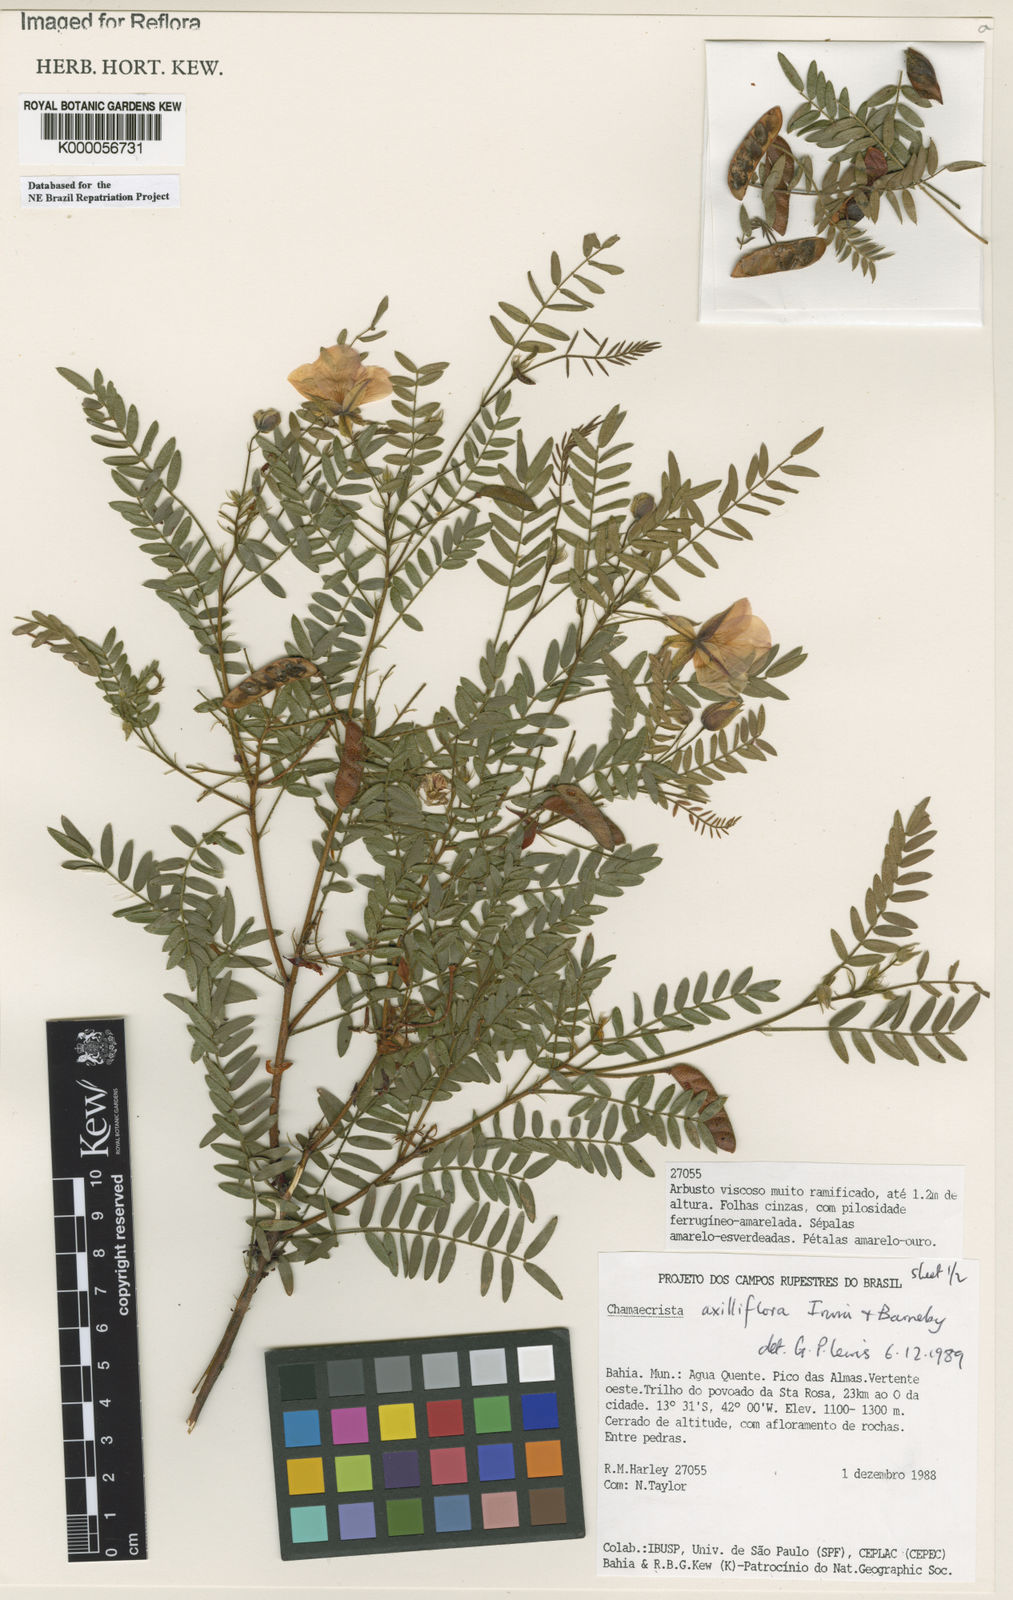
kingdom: Plantae
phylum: Tracheophyta
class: Magnoliopsida
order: Fabales
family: Fabaceae
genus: Chamaecrista
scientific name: Chamaecrista axilliflora
